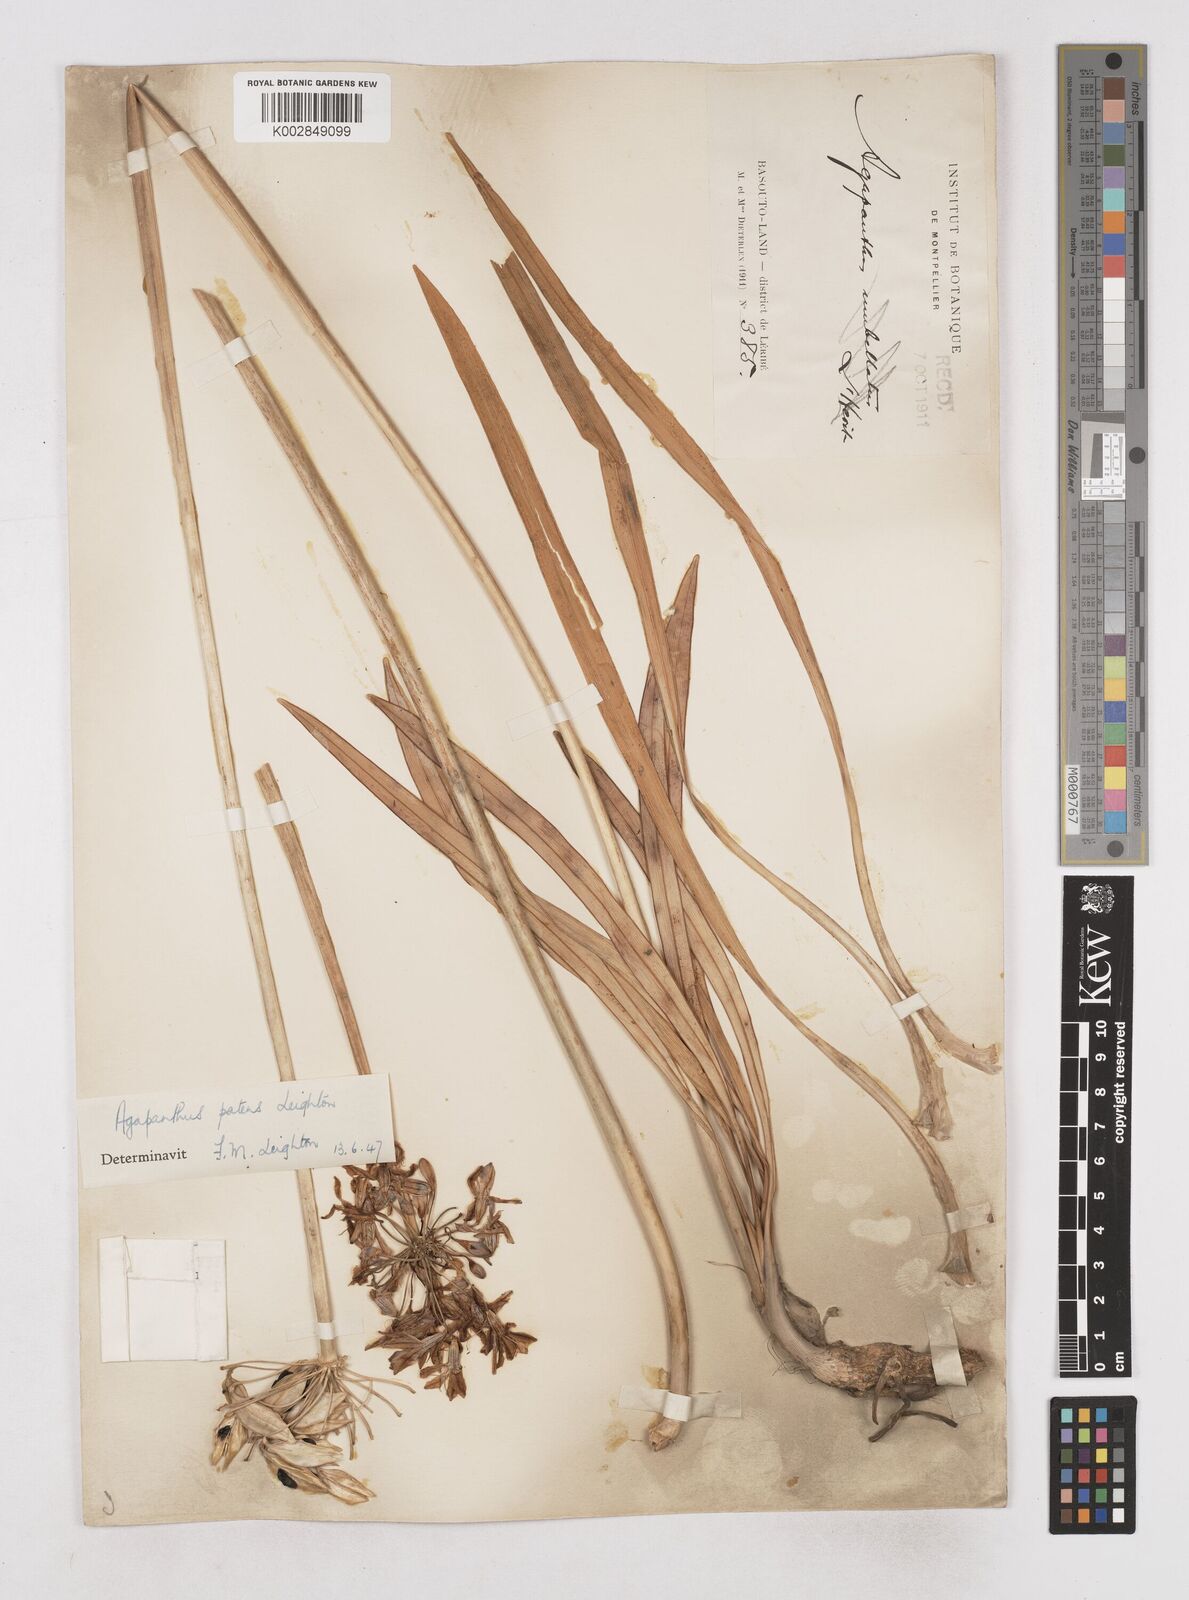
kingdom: Plantae
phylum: Tracheophyta
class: Liliopsida
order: Asparagales
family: Amaryllidaceae
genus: Agapanthus
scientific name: Agapanthus campanulatus
